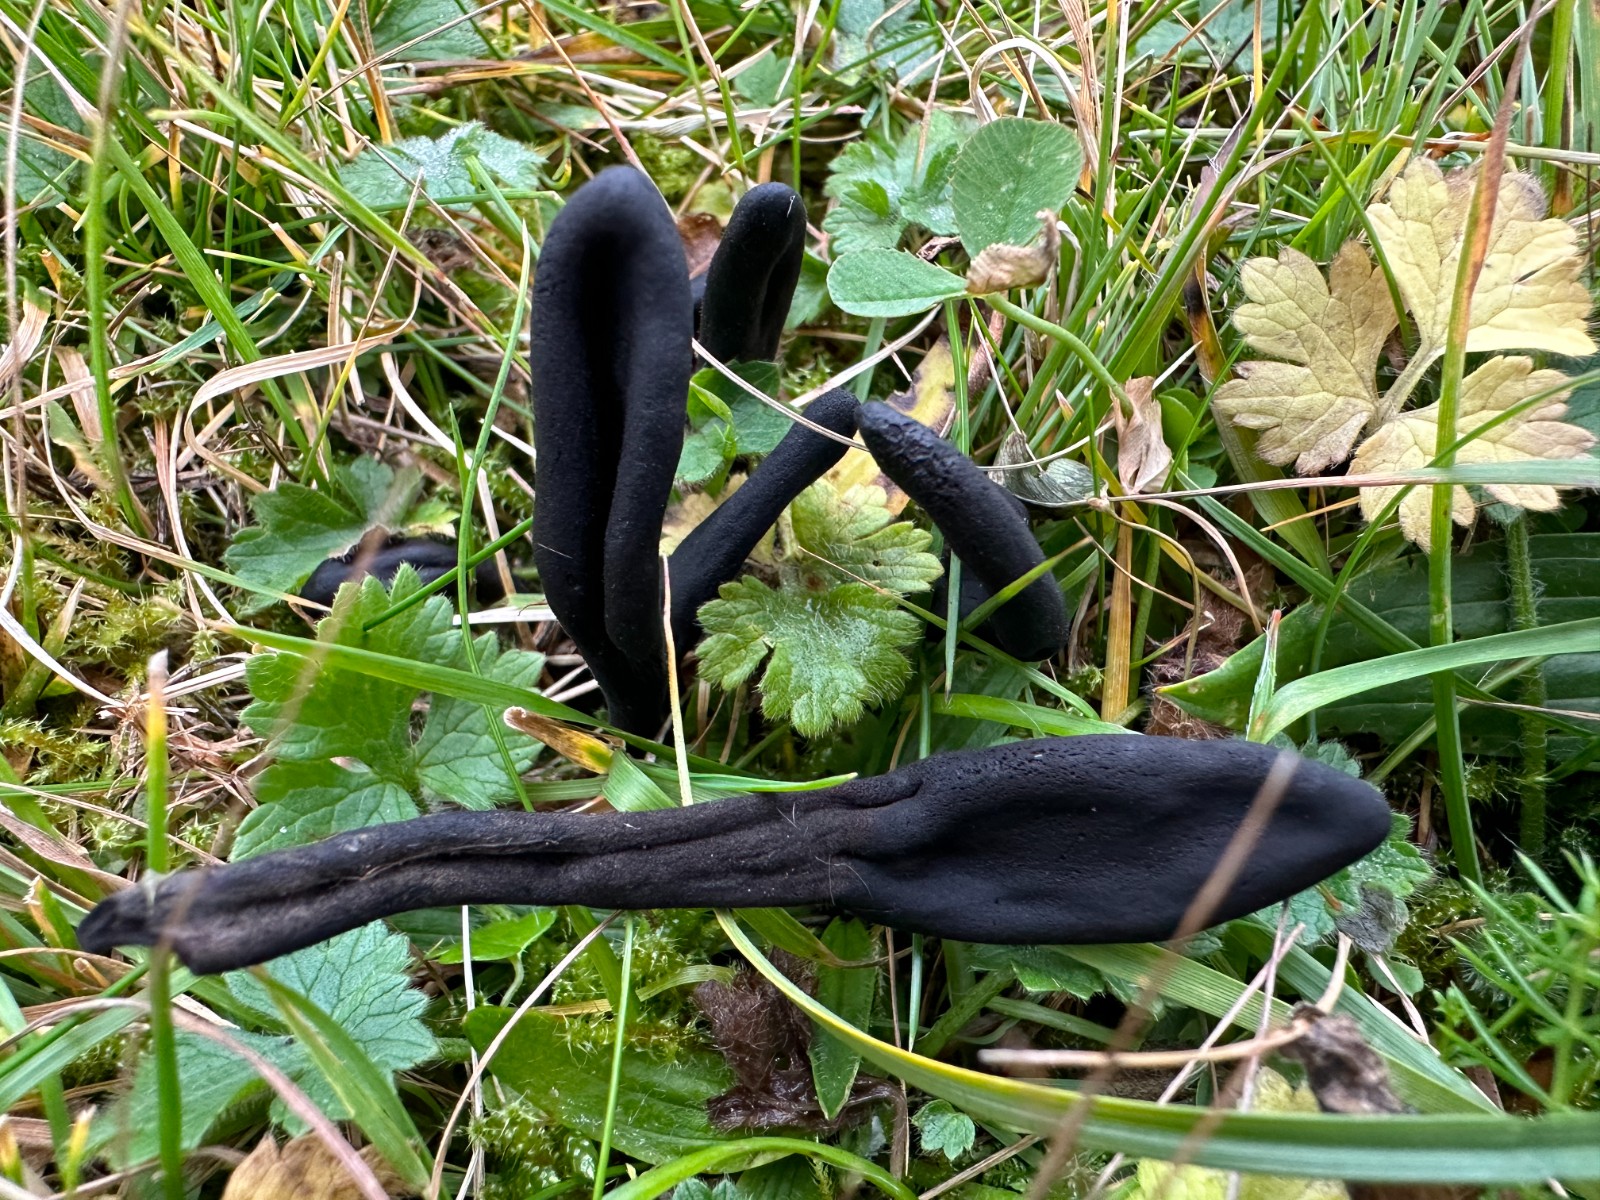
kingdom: Fungi
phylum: Ascomycota
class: Geoglossomycetes
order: Geoglossales
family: Geoglossaceae
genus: Trichoglossum
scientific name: Trichoglossum hirsutum
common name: håret jordtunge
